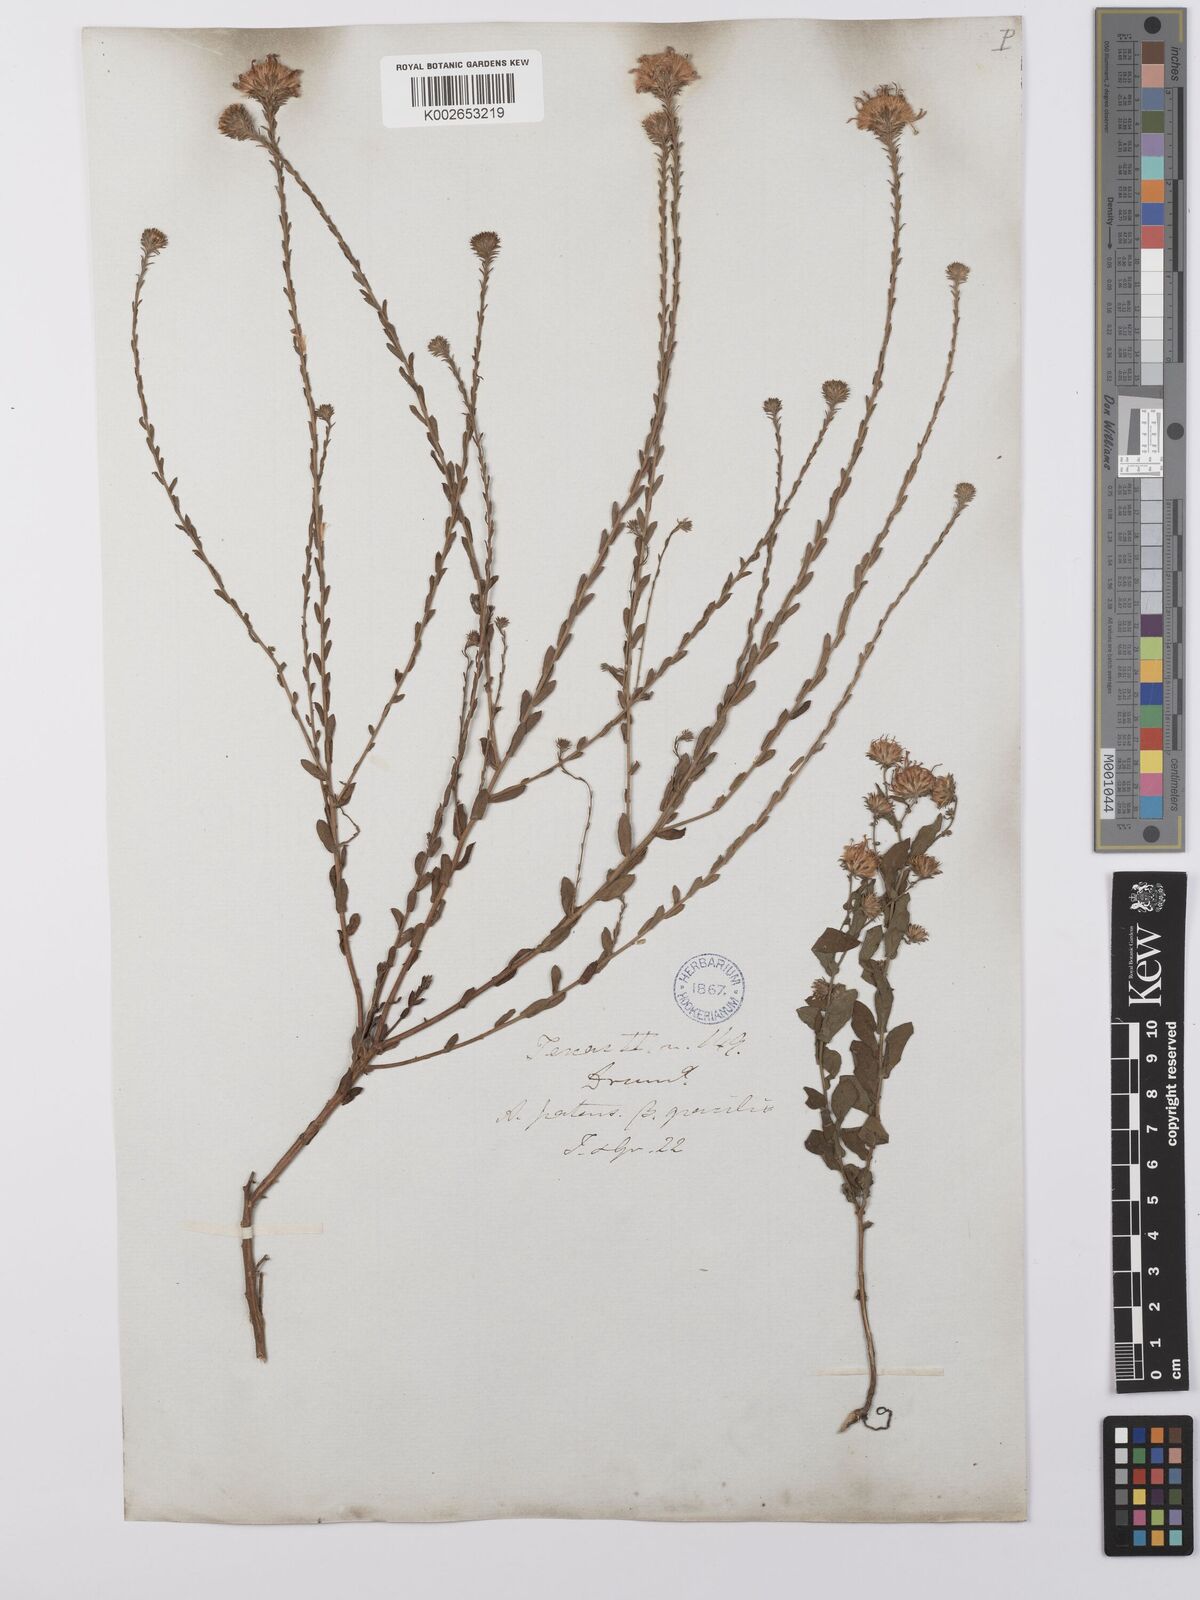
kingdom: Plantae
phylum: Tracheophyta
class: Magnoliopsida
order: Asterales
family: Asteraceae
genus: Symphyotrichum
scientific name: Symphyotrichum patens
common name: Late purple aster
